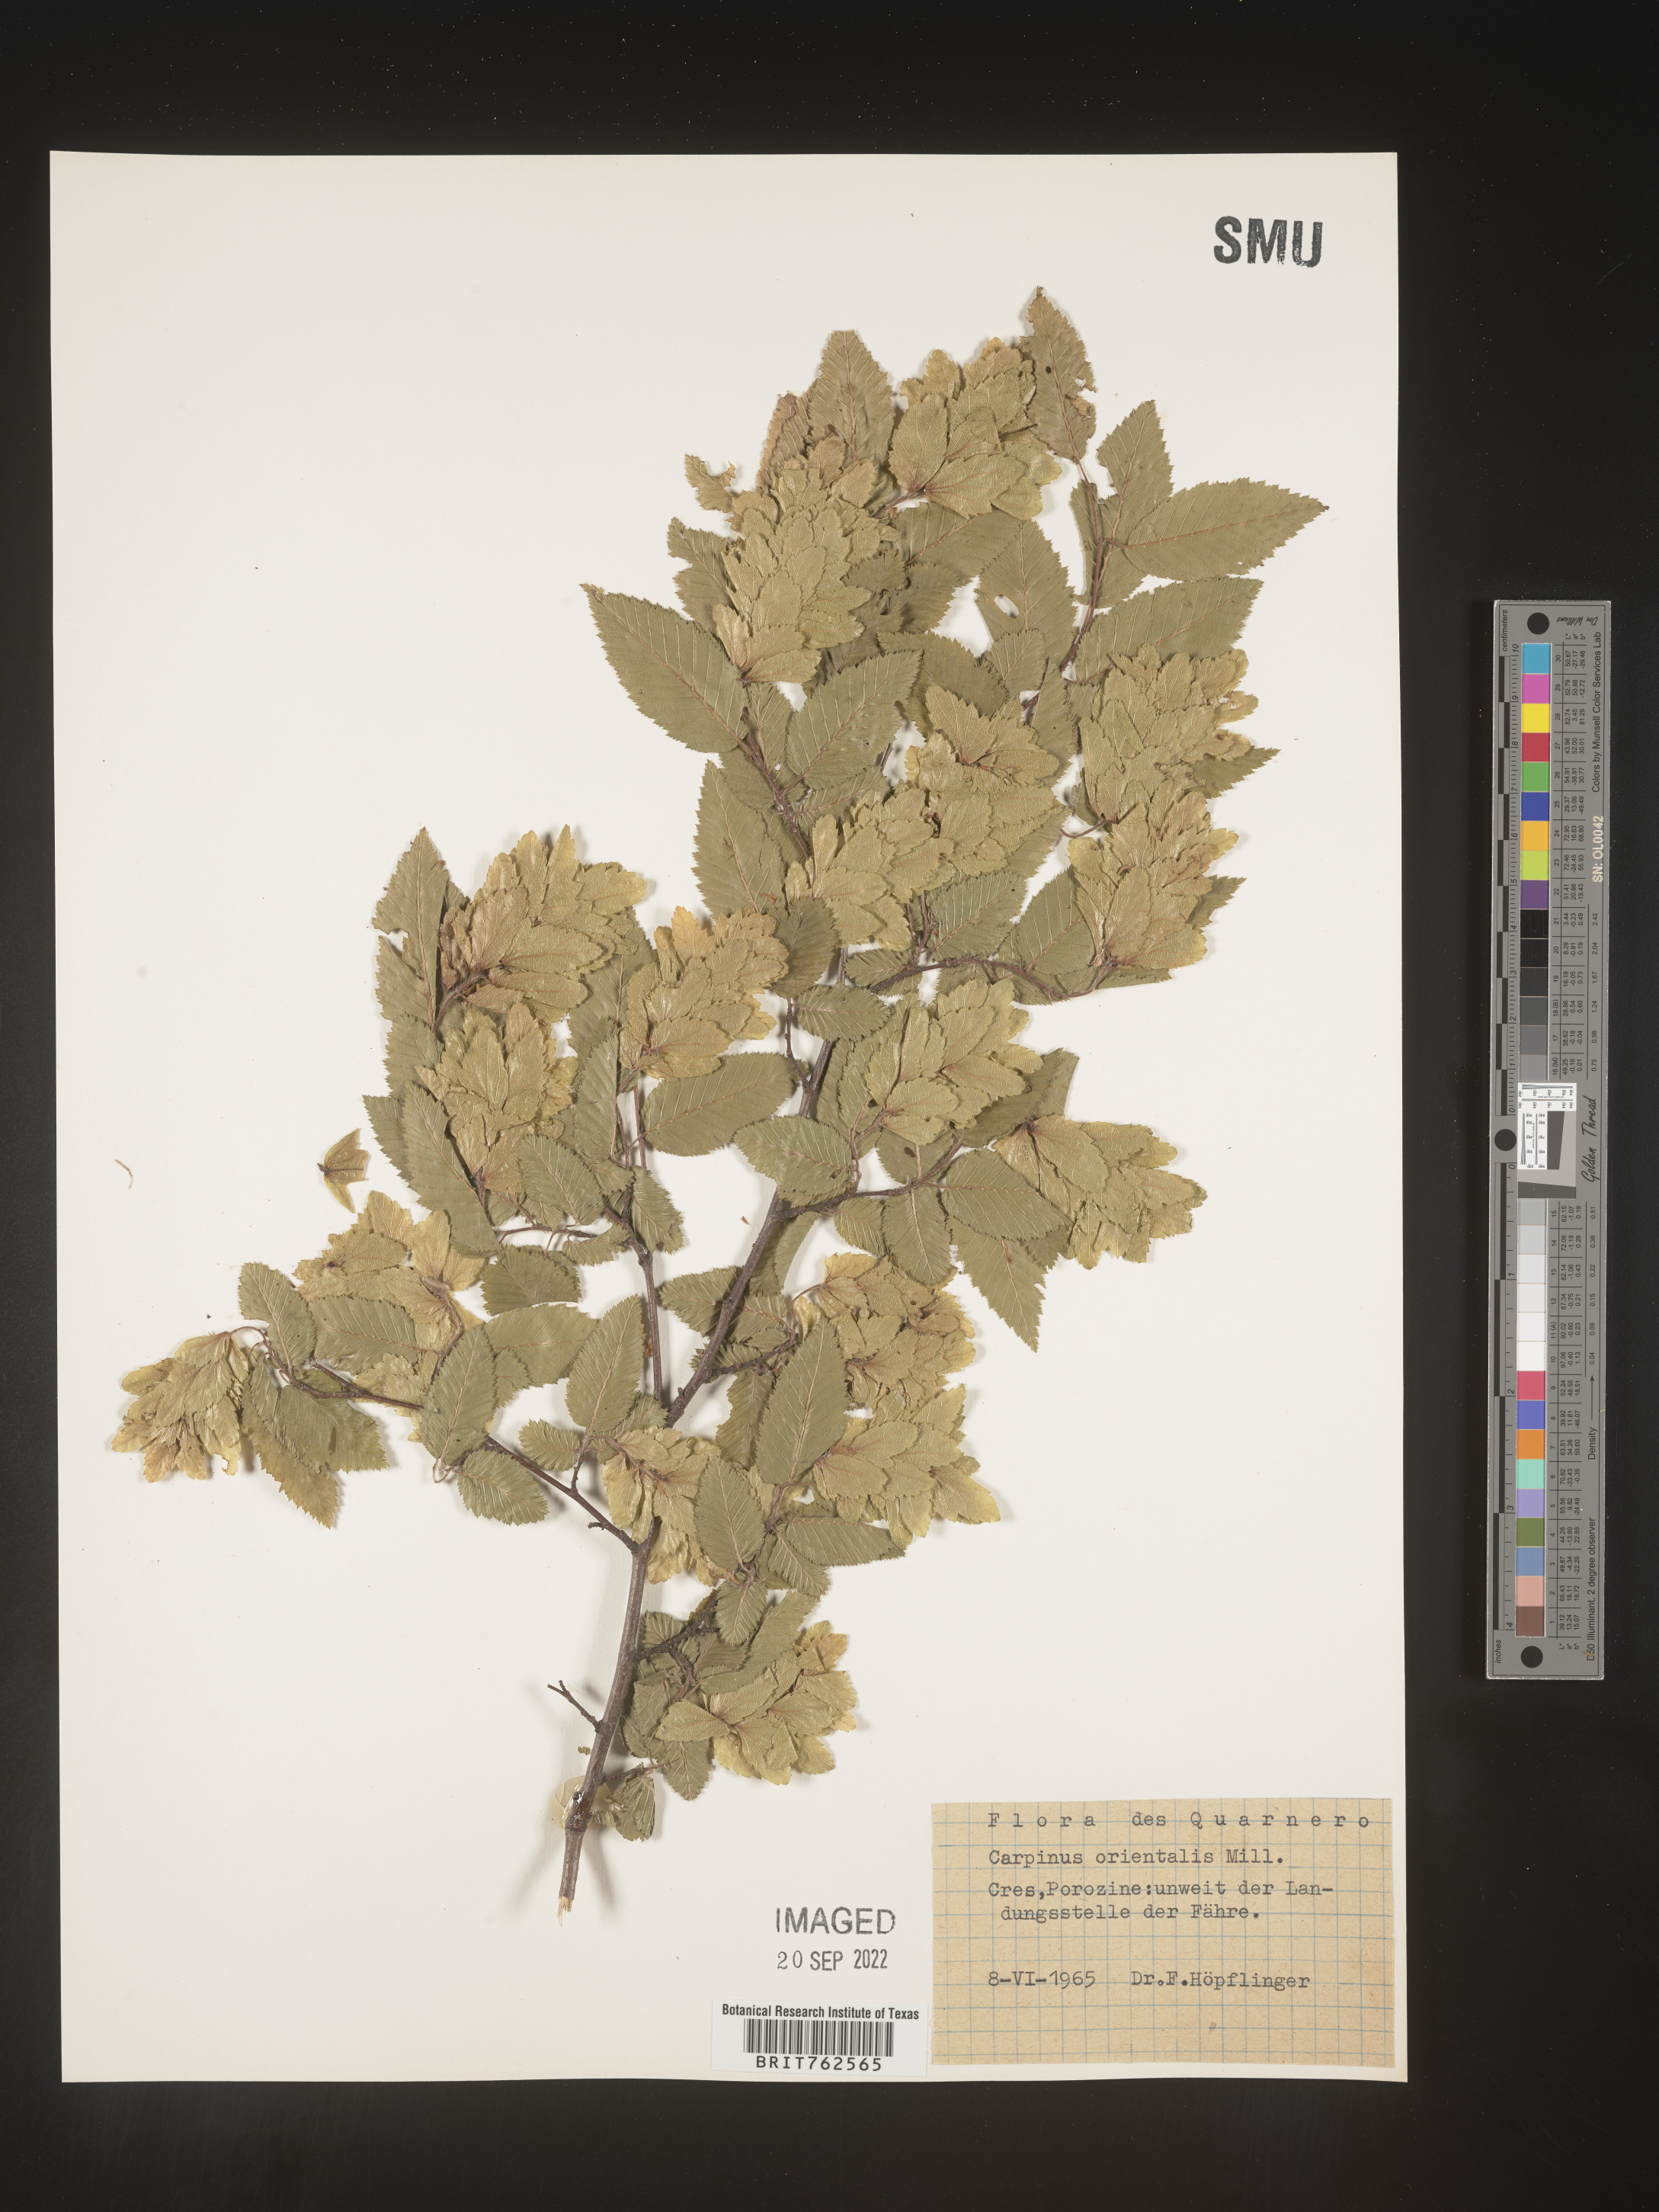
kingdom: Plantae
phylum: Tracheophyta
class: Magnoliopsida
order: Fagales
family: Betulaceae
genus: Carpinus
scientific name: Carpinus
